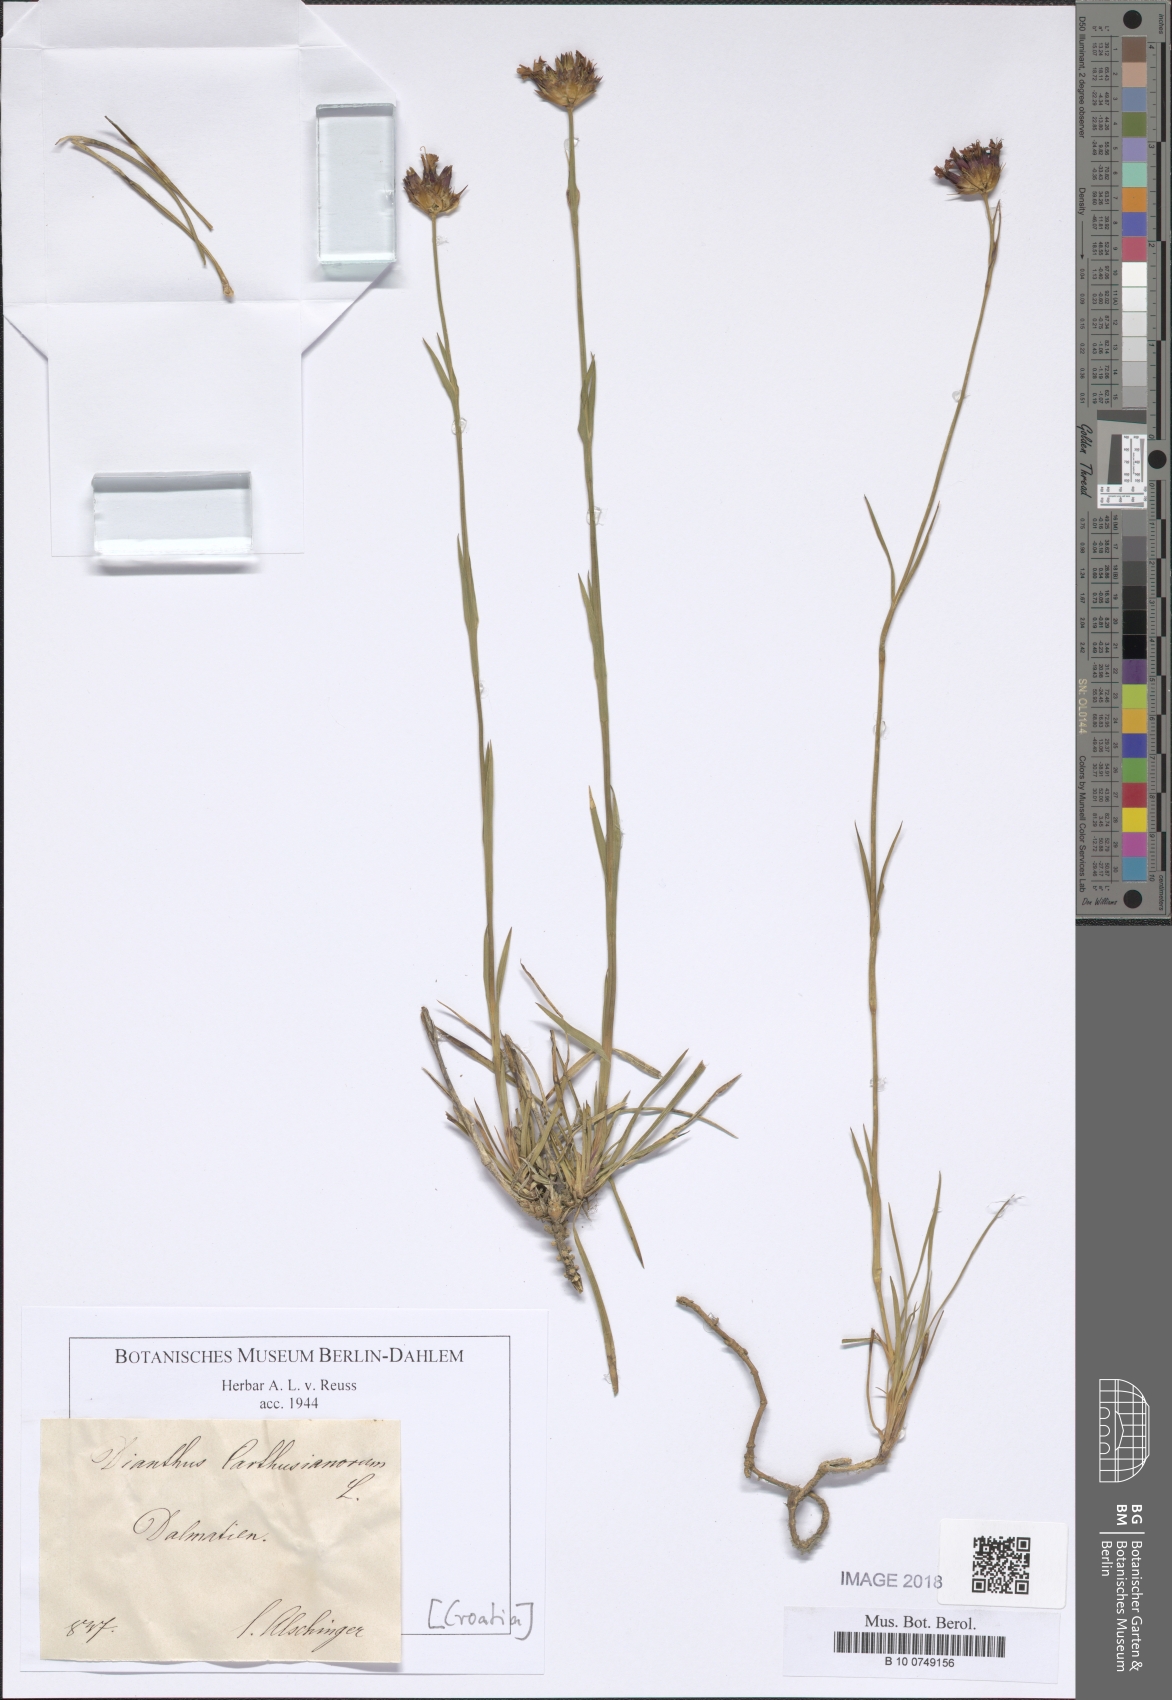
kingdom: Plantae
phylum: Tracheophyta
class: Magnoliopsida
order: Caryophyllales
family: Caryophyllaceae
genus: Dianthus
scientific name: Dianthus carthusianorum
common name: Carthusian pink
